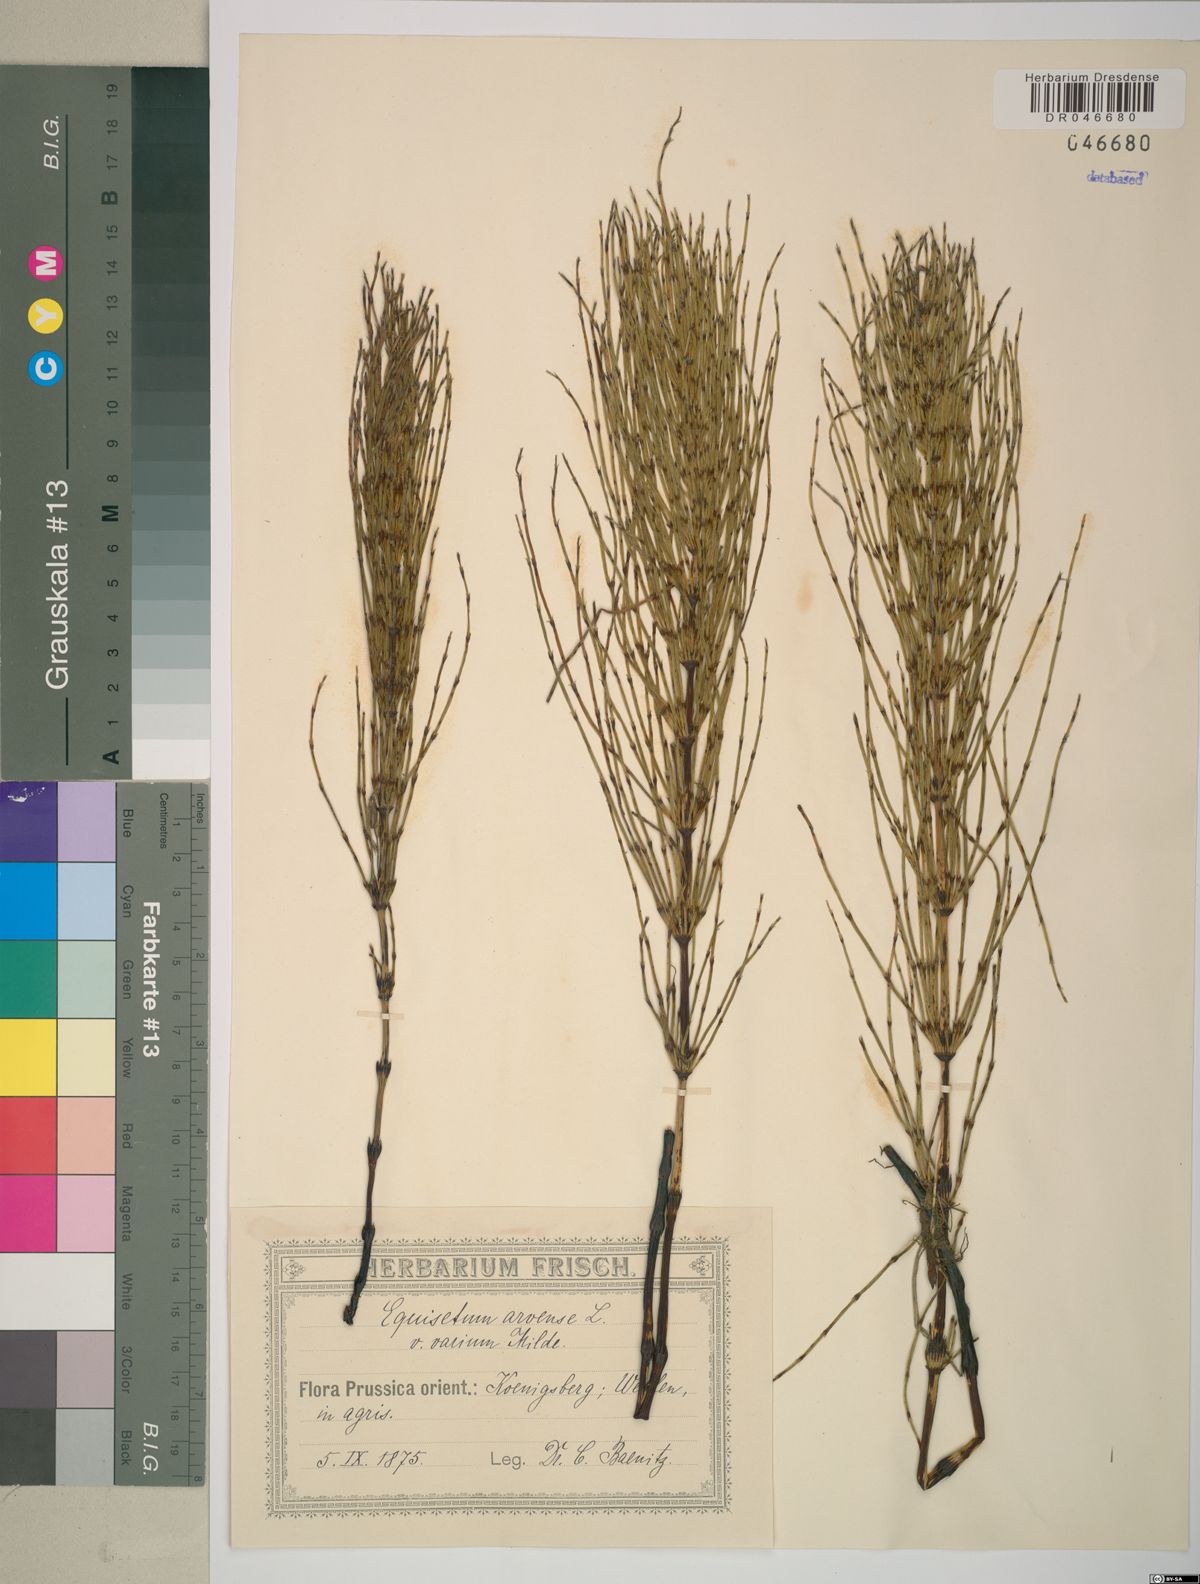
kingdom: Plantae
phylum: Tracheophyta
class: Polypodiopsida
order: Equisetales
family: Equisetaceae
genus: Equisetum
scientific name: Equisetum arvense
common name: Field horsetail
